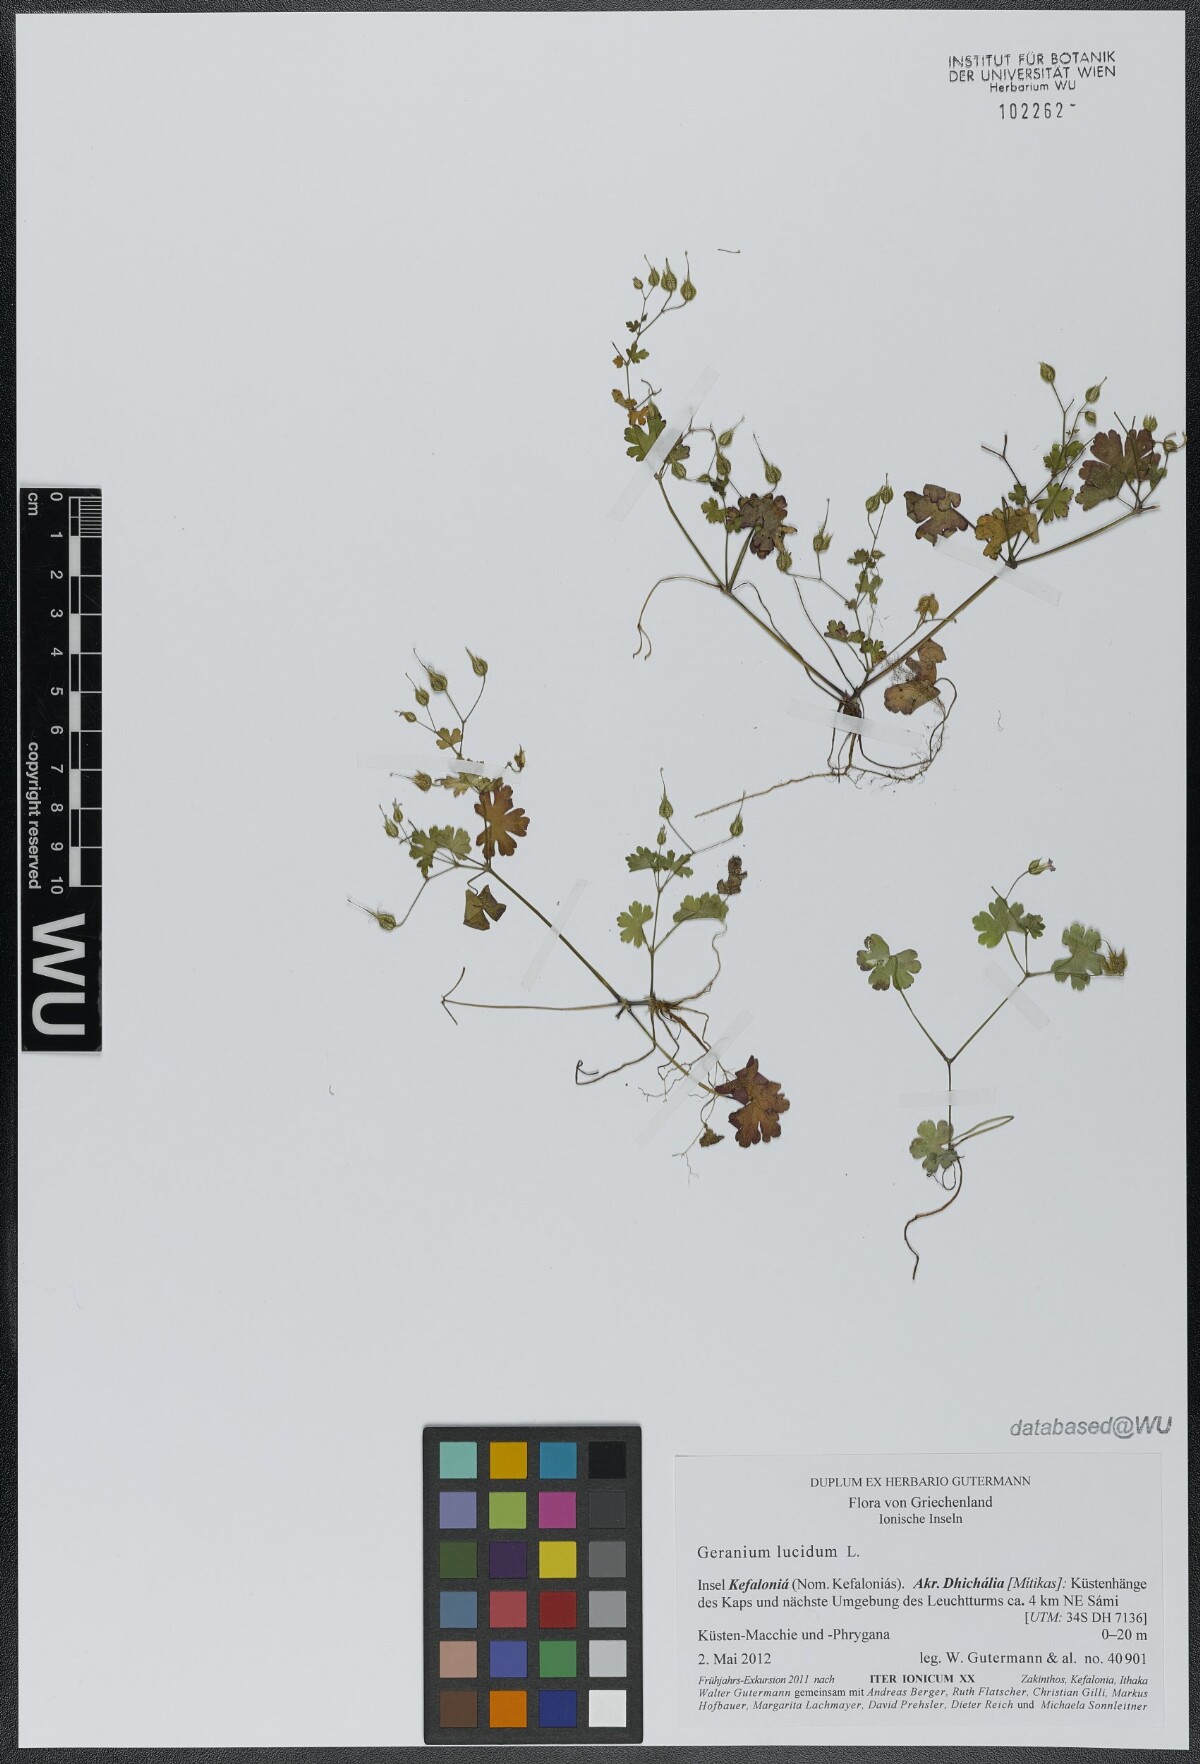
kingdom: Plantae
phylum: Tracheophyta
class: Magnoliopsida
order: Geraniales
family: Geraniaceae
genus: Geranium
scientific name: Geranium lucidum
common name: Shining crane's-bill
